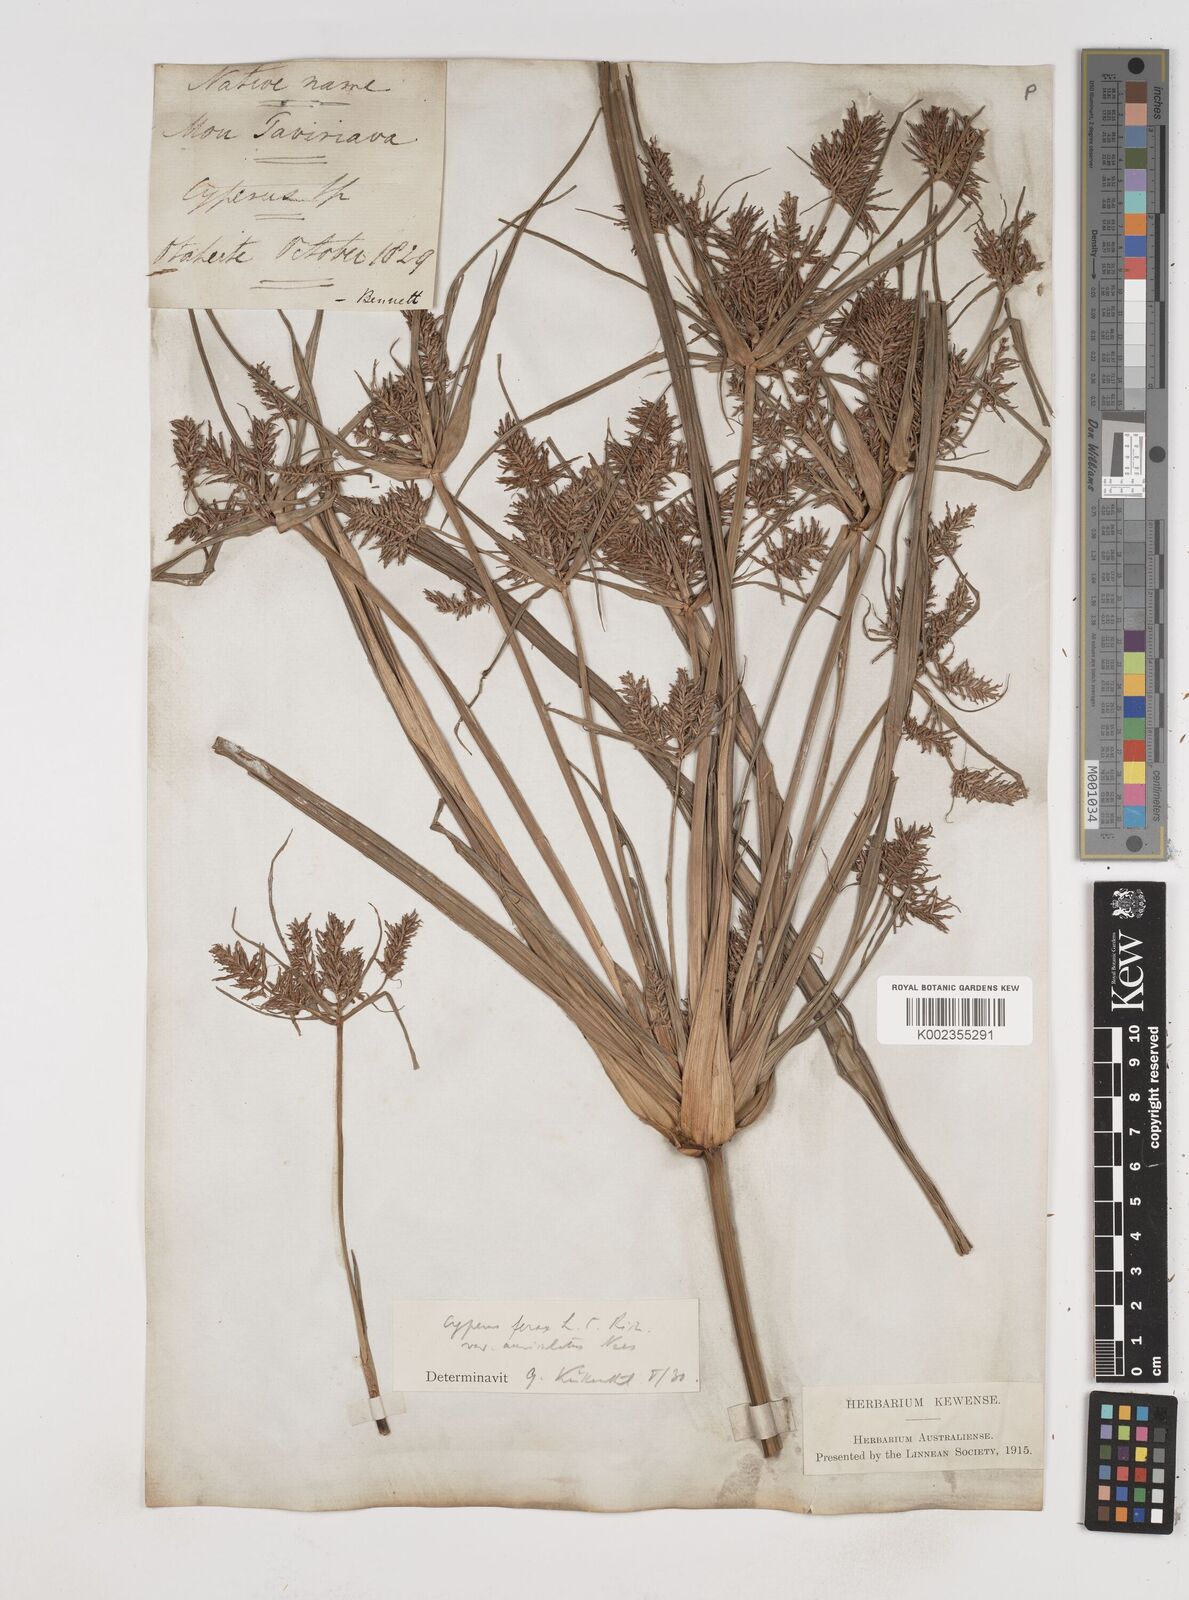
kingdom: Plantae
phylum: Tracheophyta
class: Liliopsida
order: Poales
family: Cyperaceae
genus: Cyperus
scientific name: Cyperus odoratus
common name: Fragrant flatsedge
